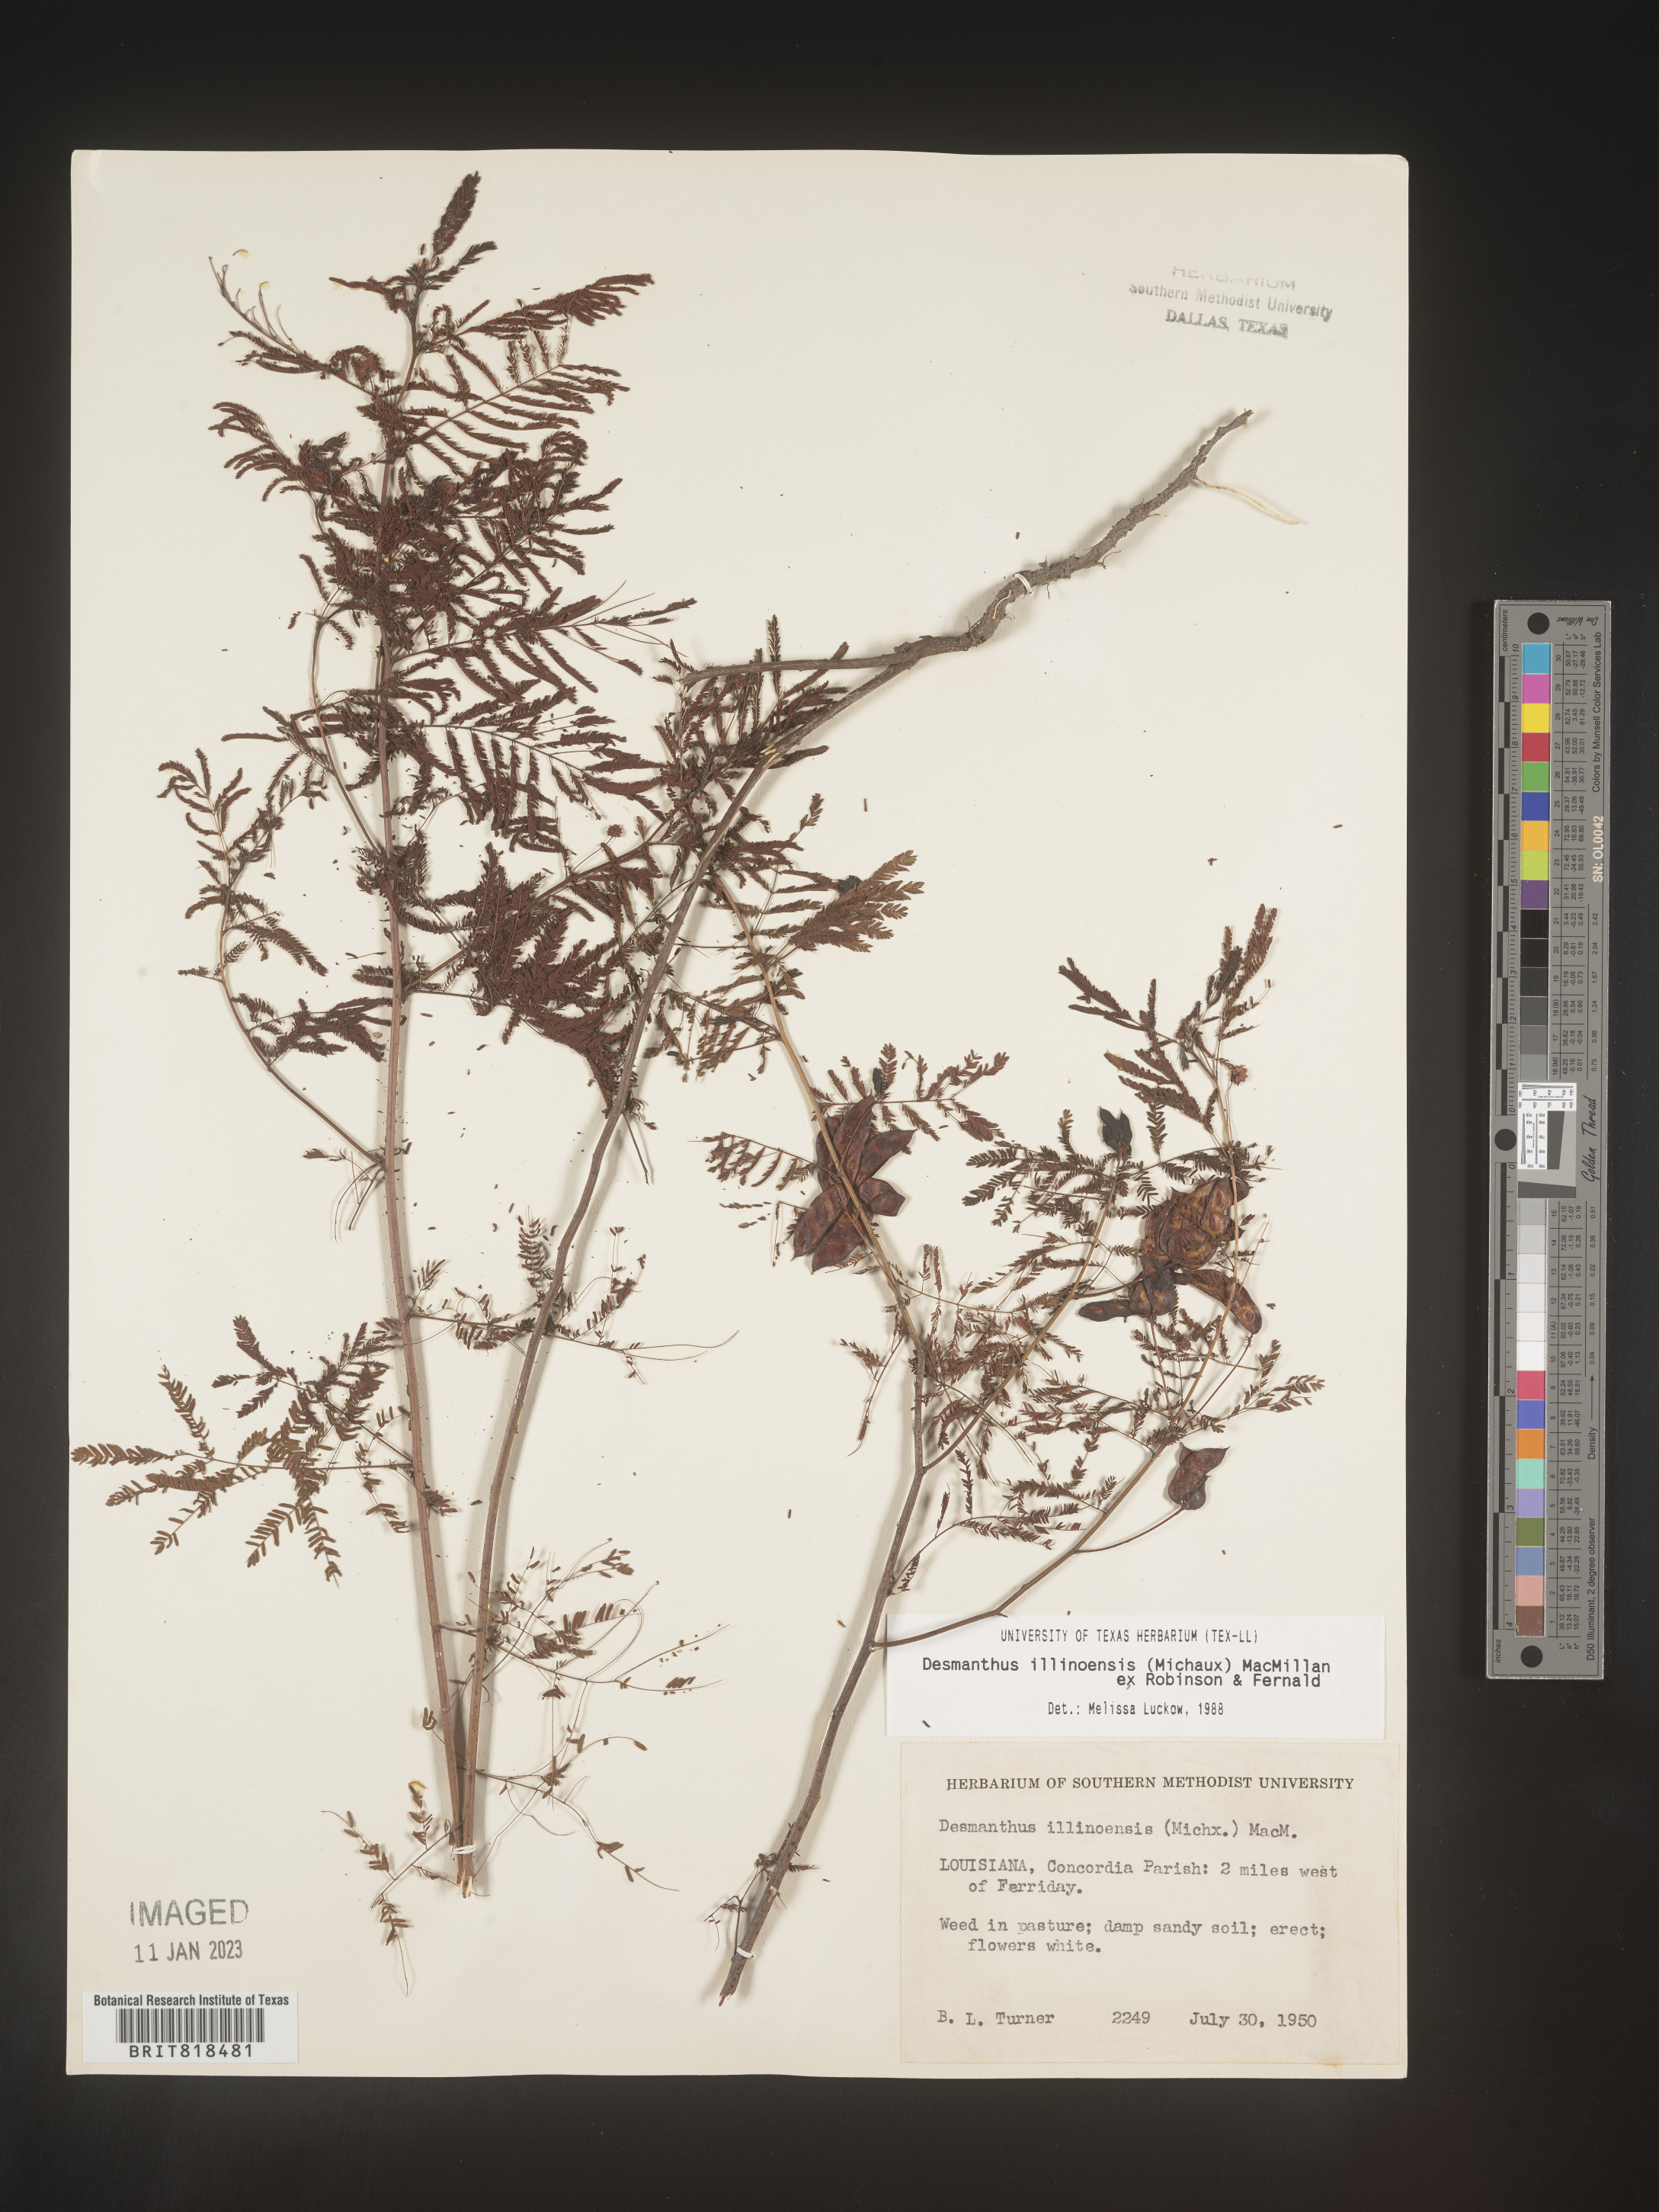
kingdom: Plantae
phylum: Tracheophyta
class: Magnoliopsida
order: Fabales
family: Fabaceae
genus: Desmanthus
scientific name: Desmanthus illinoensis
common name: Illinois bundle-flower
